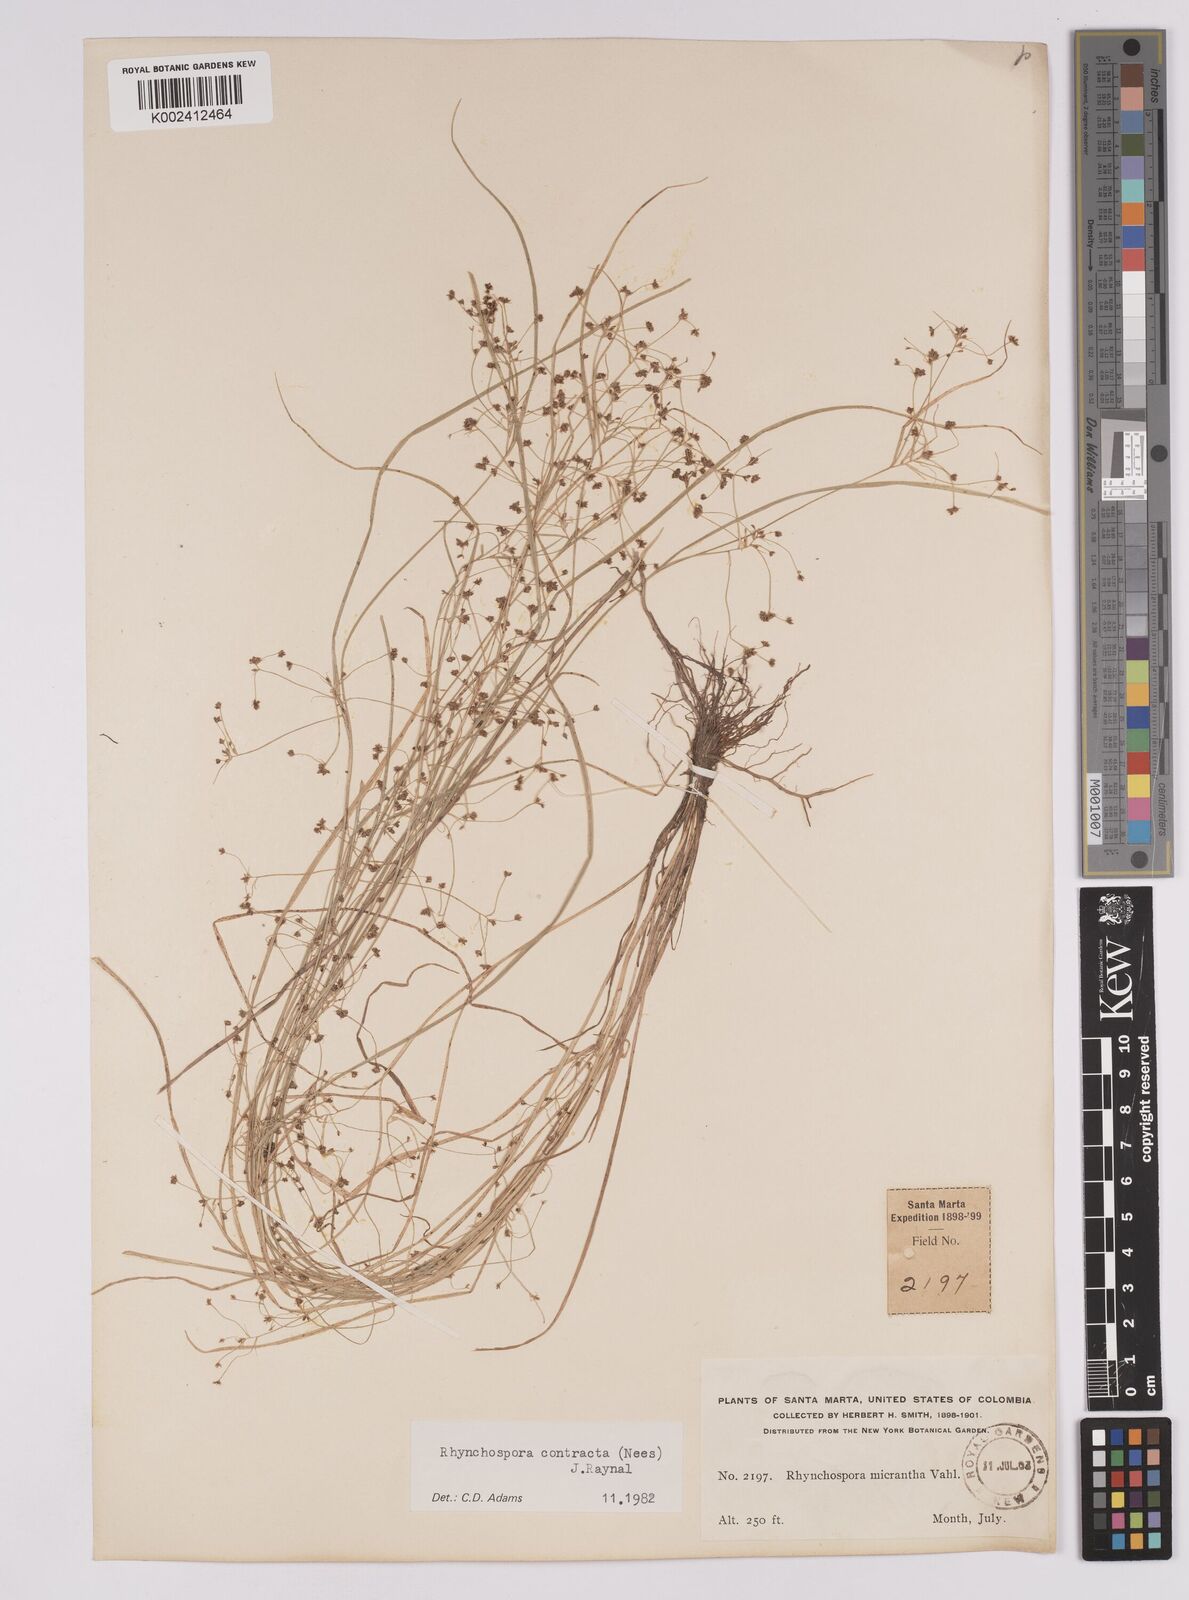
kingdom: Plantae
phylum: Tracheophyta
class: Liliopsida
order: Poales
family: Cyperaceae
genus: Rhynchospora
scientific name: Rhynchospora contracta
